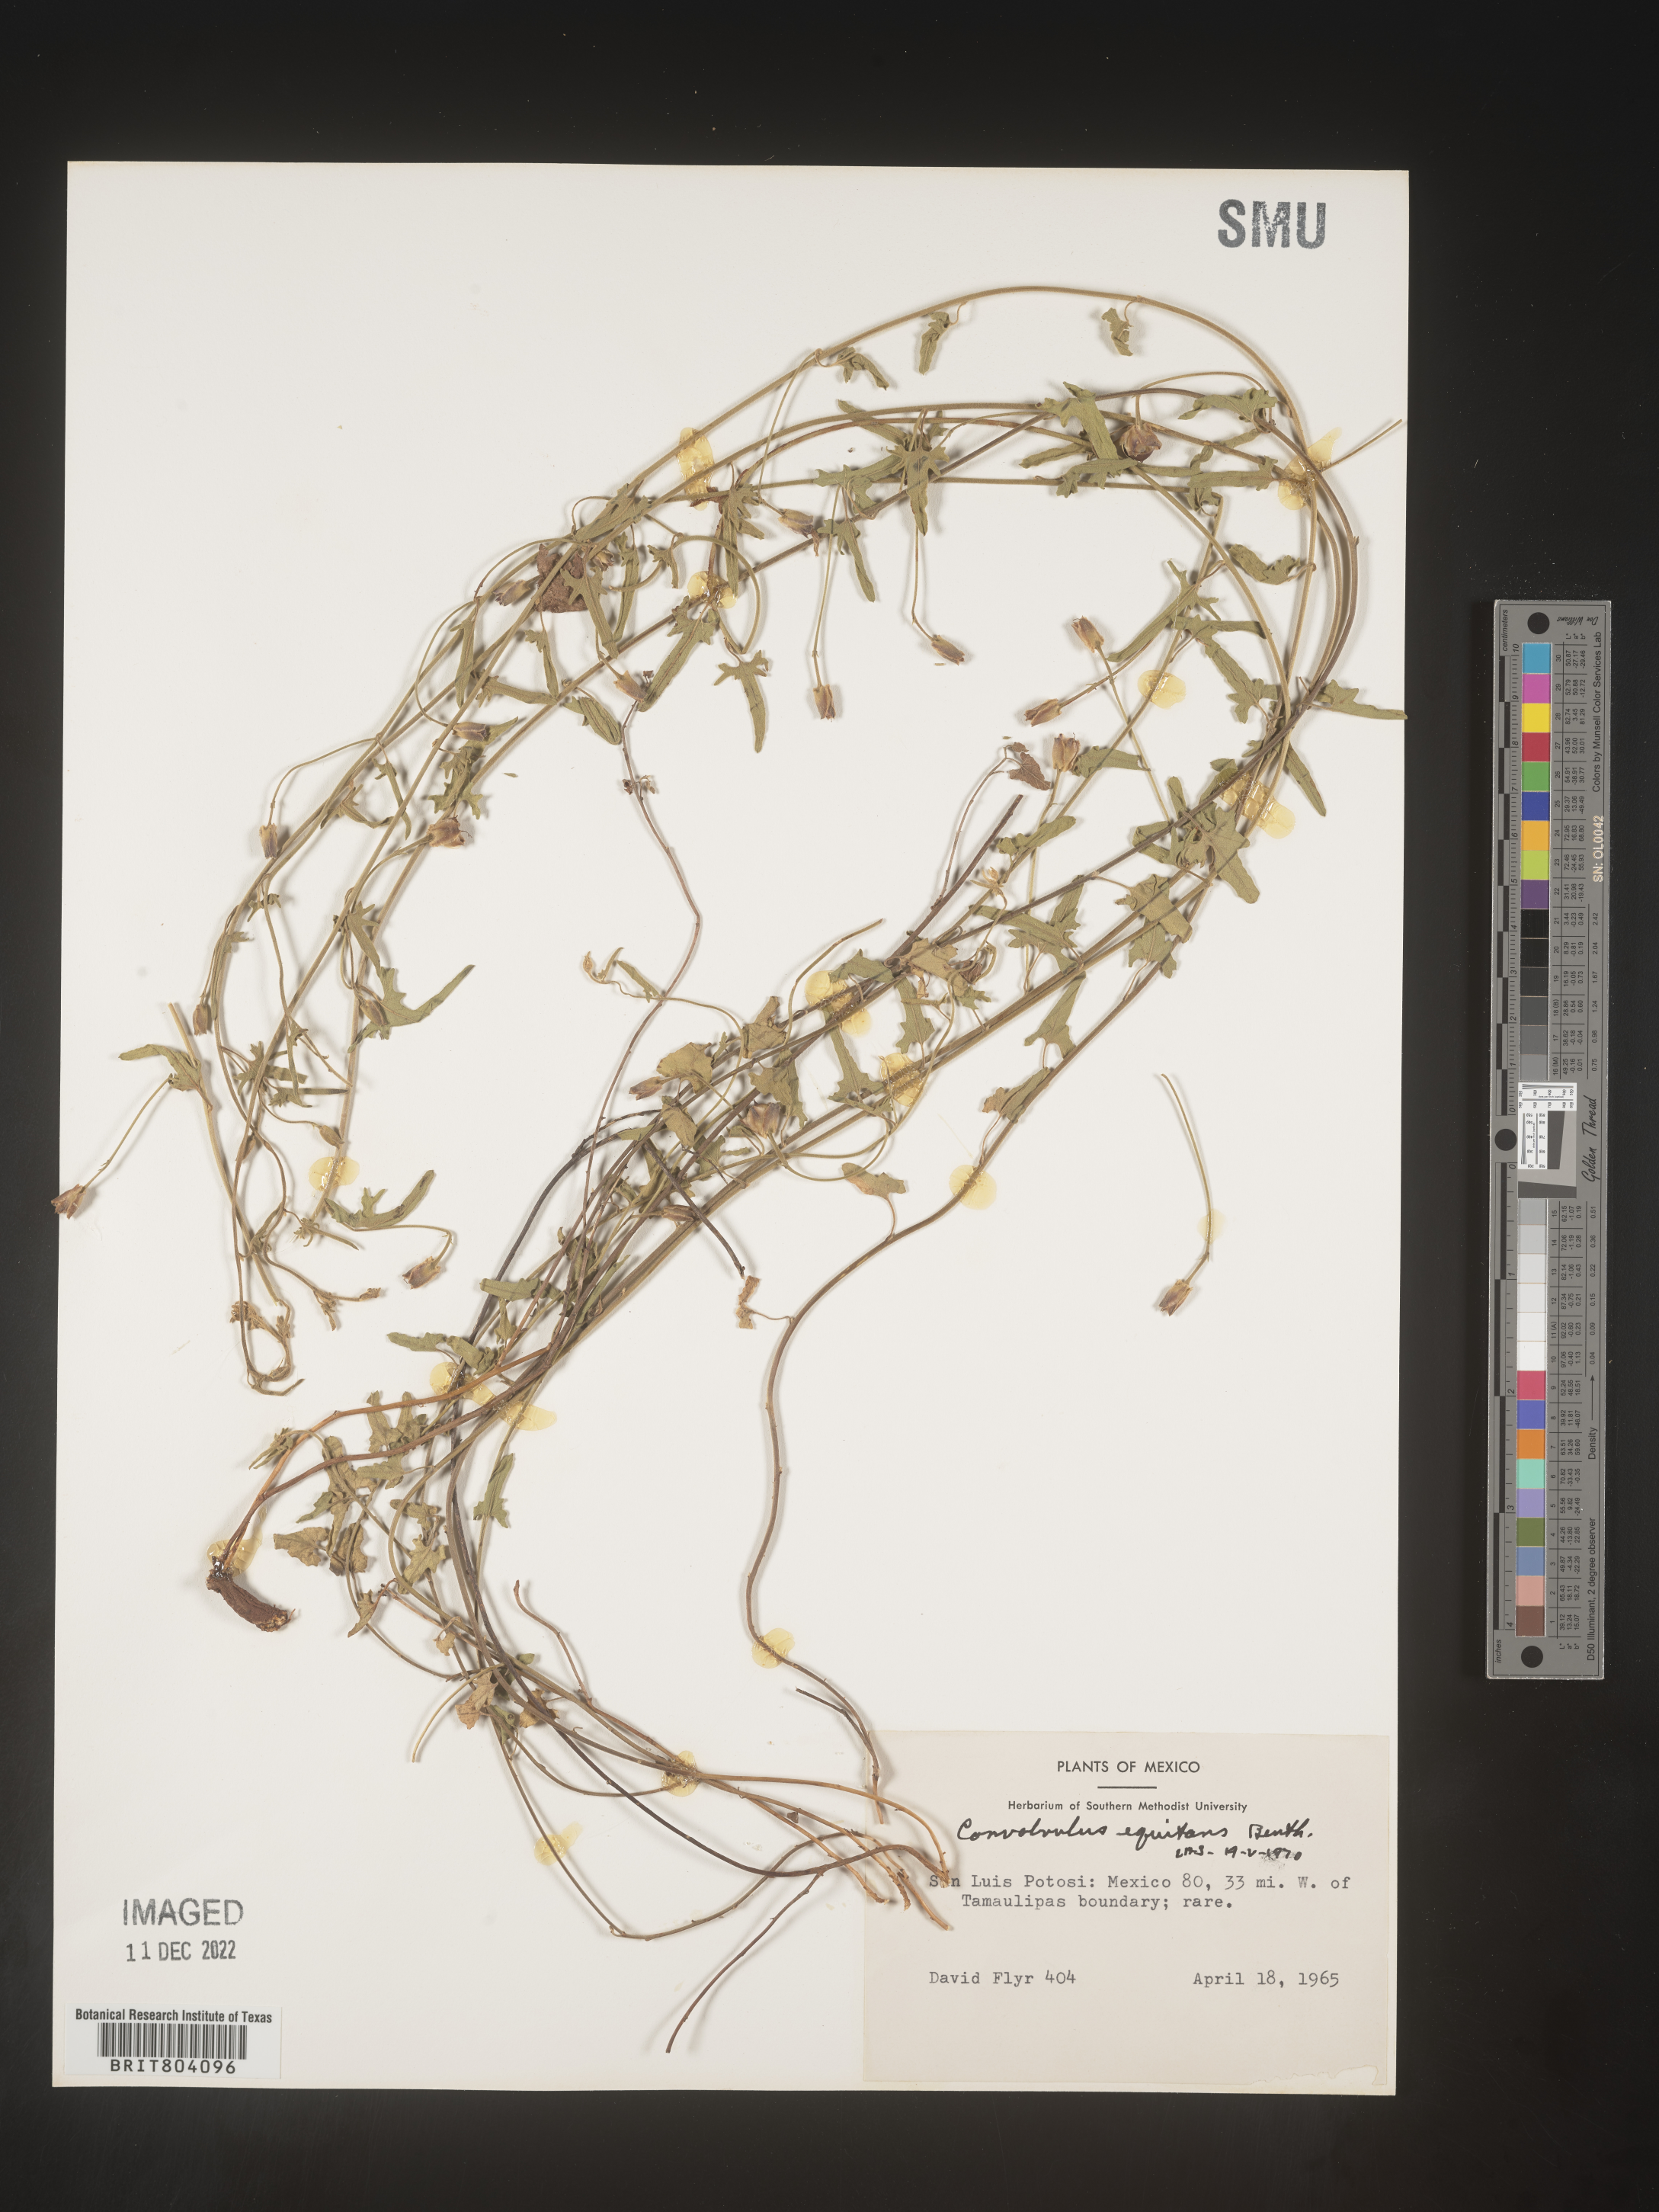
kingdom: Plantae
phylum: Tracheophyta
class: Magnoliopsida
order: Solanales
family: Convolvulaceae
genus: Convolvulus
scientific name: Convolvulus
